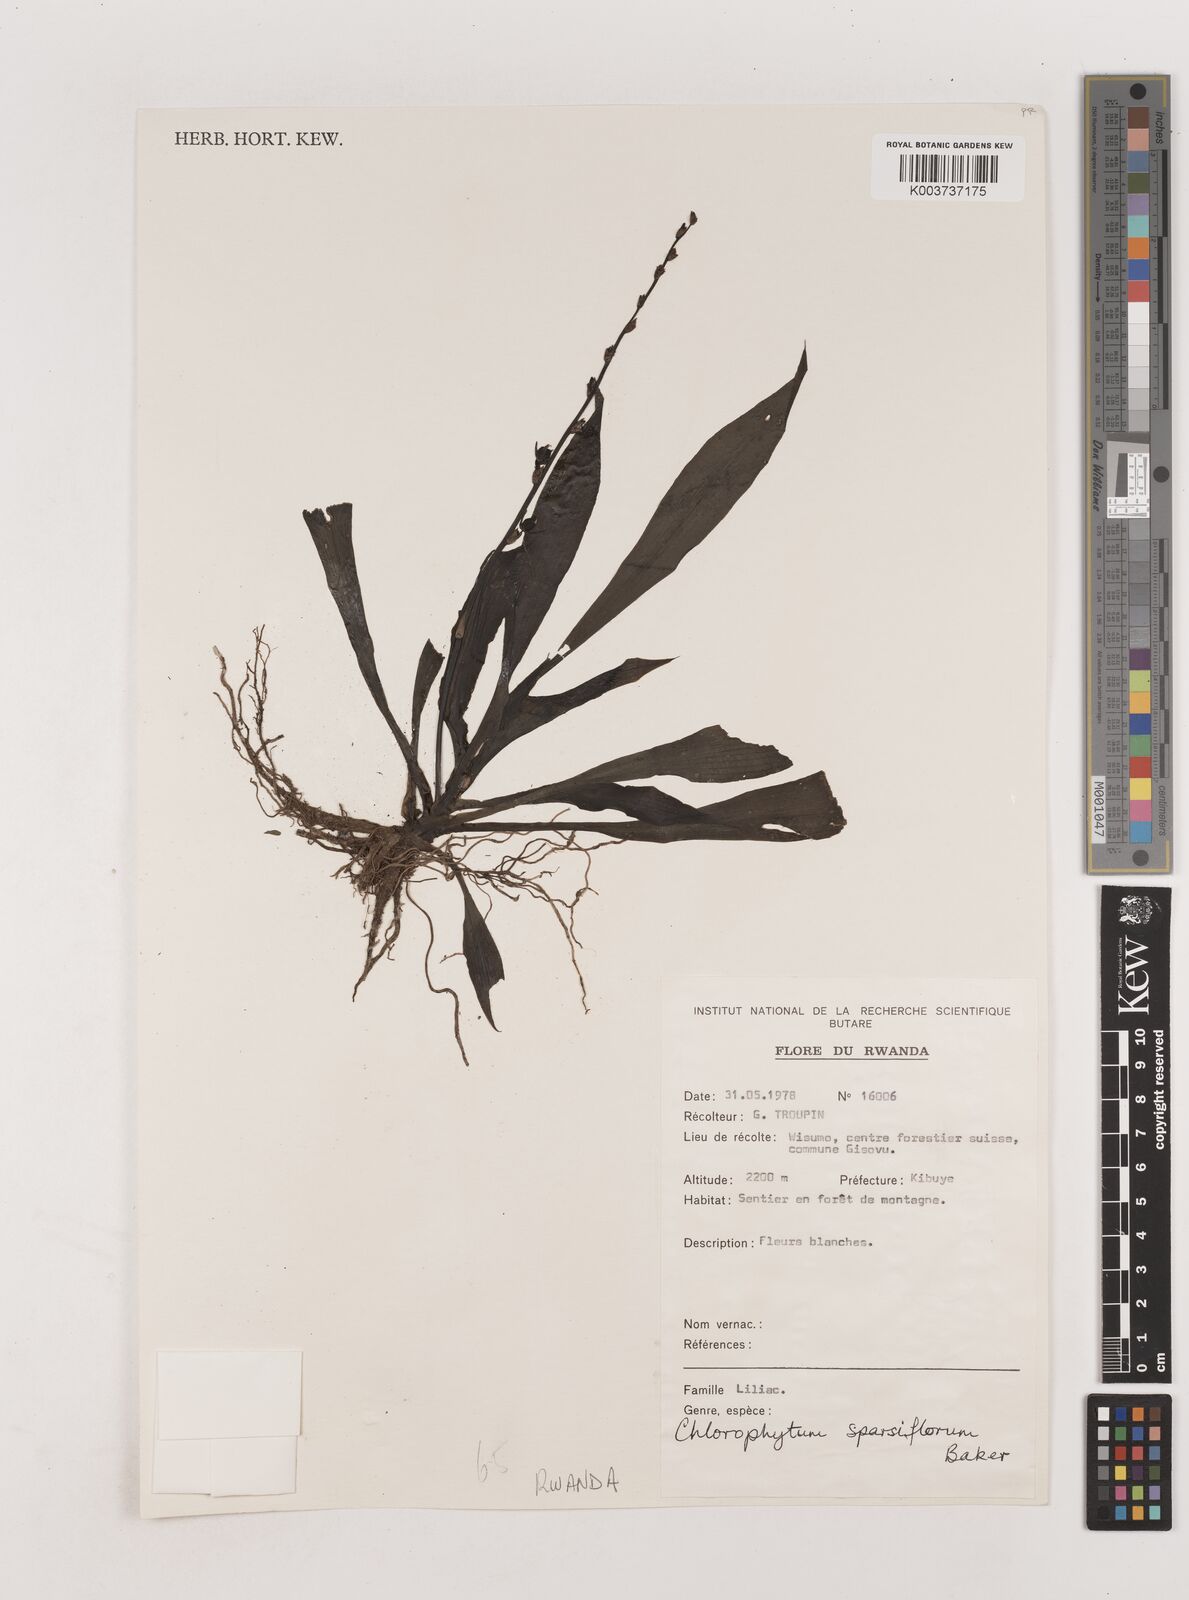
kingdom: Plantae
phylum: Tracheophyta
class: Liliopsida
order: Asparagales
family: Asparagaceae
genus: Chlorophytum
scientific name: Chlorophytum sparsiflorum
